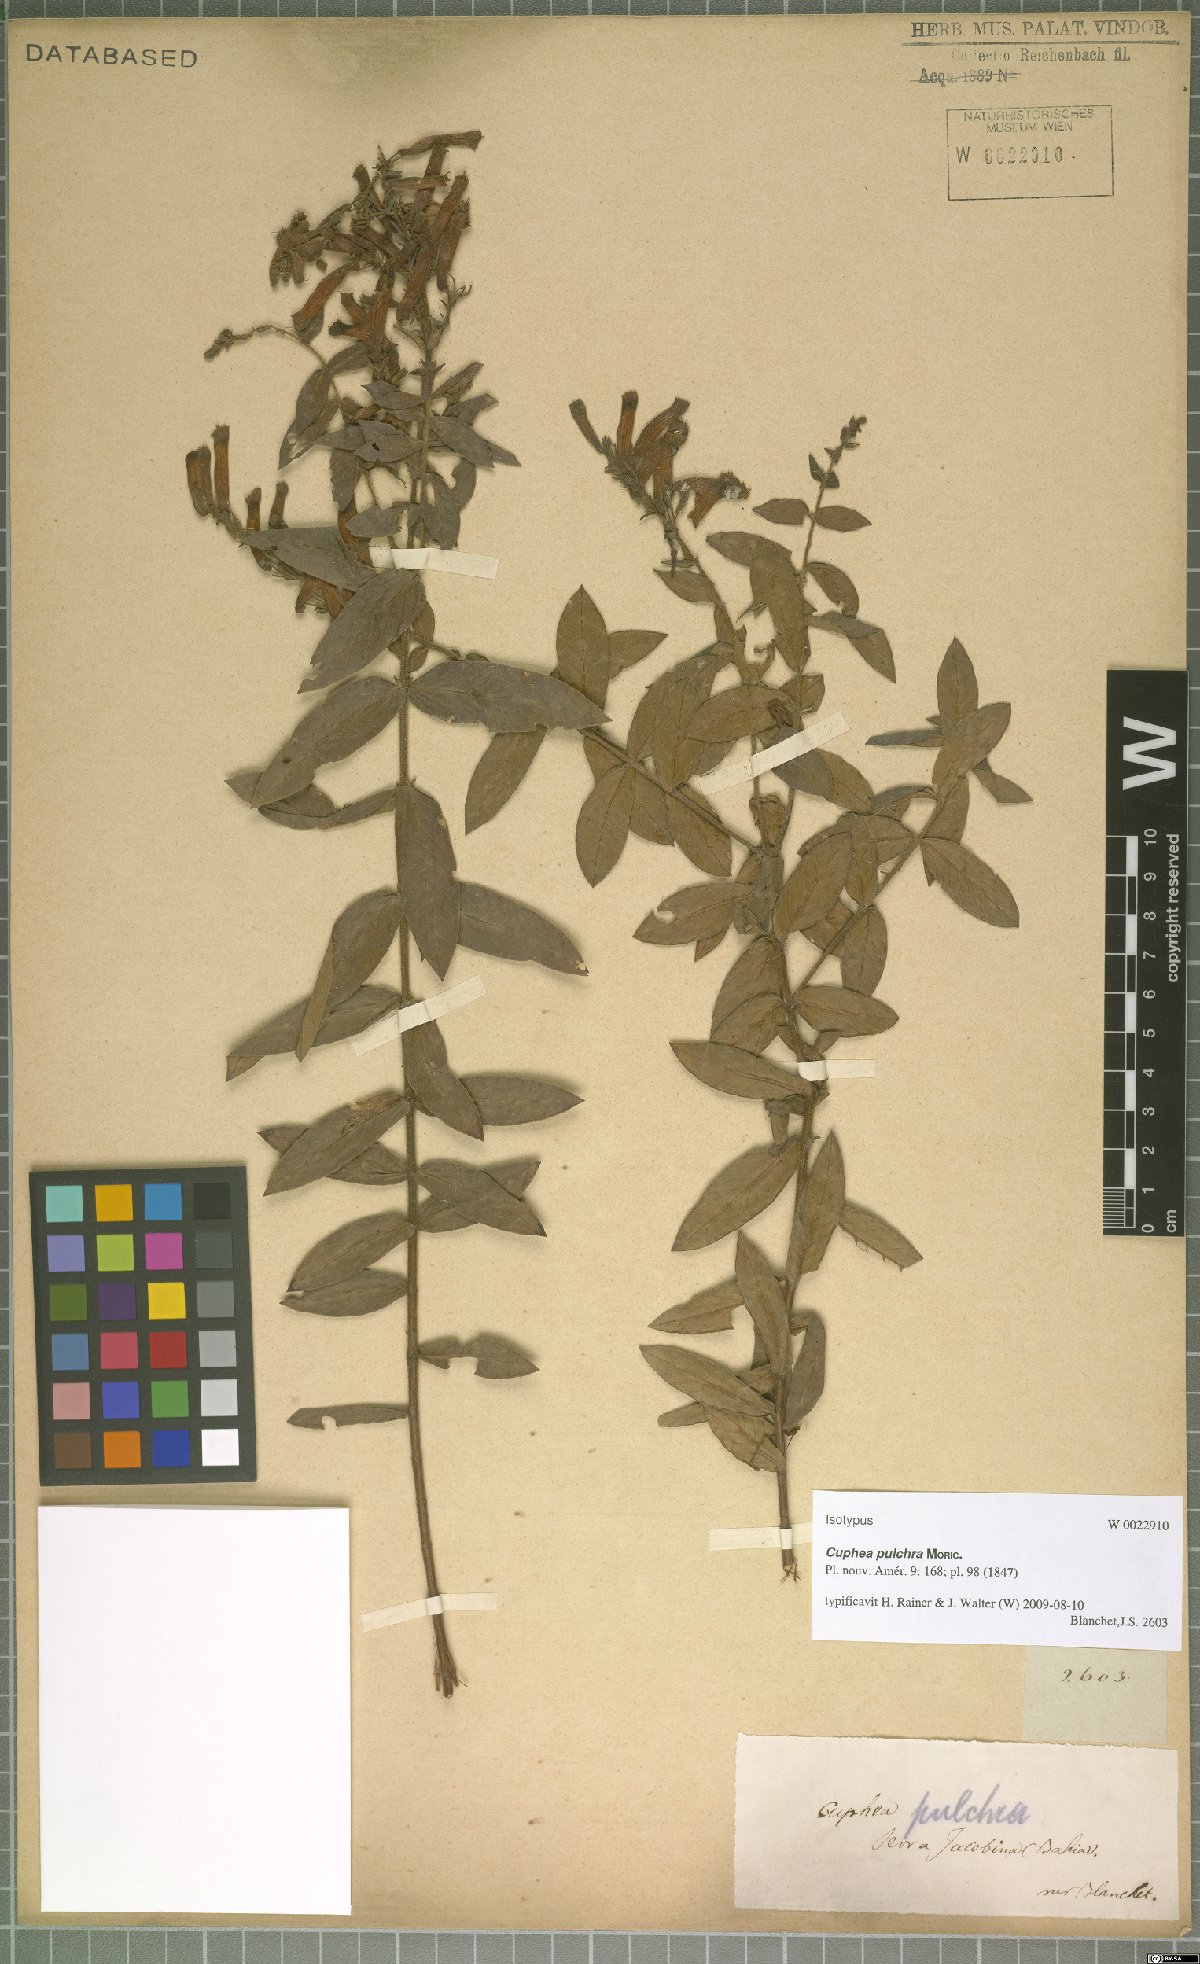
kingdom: Plantae
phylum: Tracheophyta
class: Magnoliopsida
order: Myrtales
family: Lythraceae
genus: Cuphea
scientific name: Cuphea pulchra
